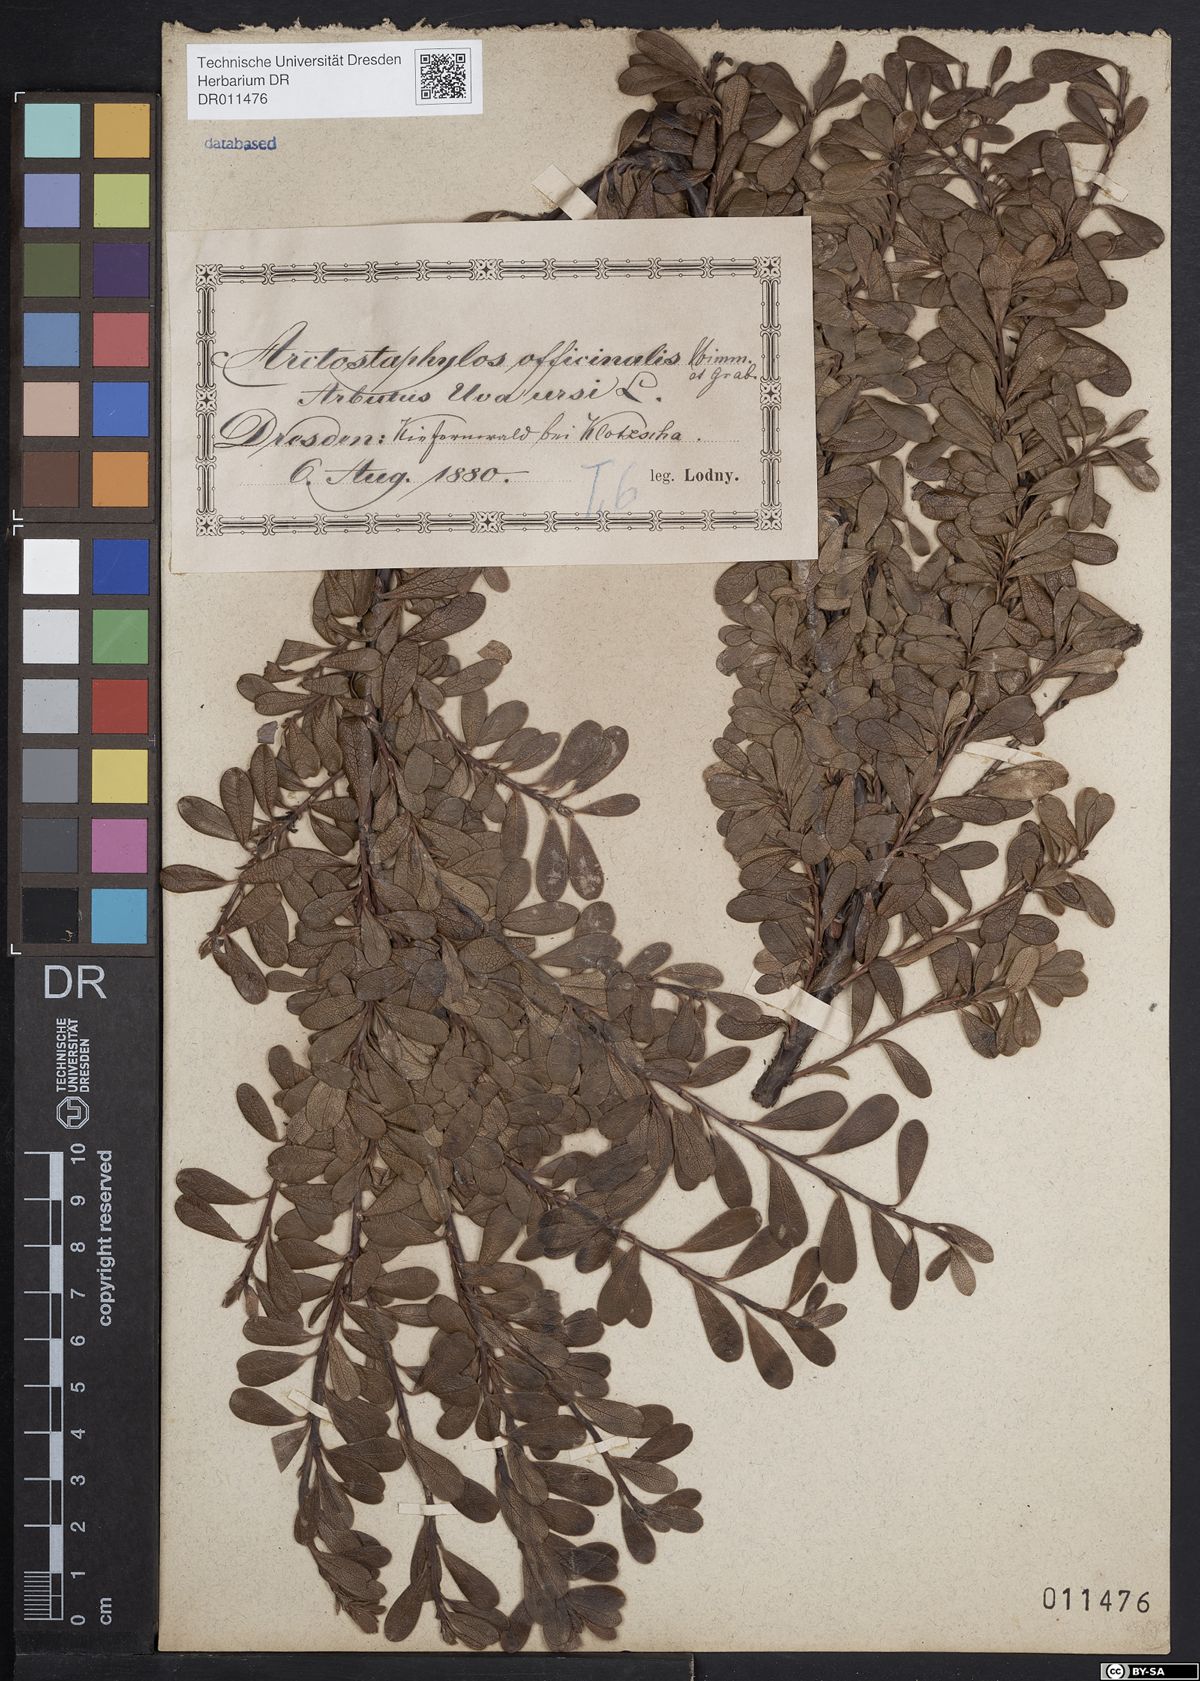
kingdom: Plantae
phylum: Tracheophyta
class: Magnoliopsida
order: Ericales
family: Ericaceae
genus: Arctostaphylos
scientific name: Arctostaphylos uva-ursi
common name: Bearberry
